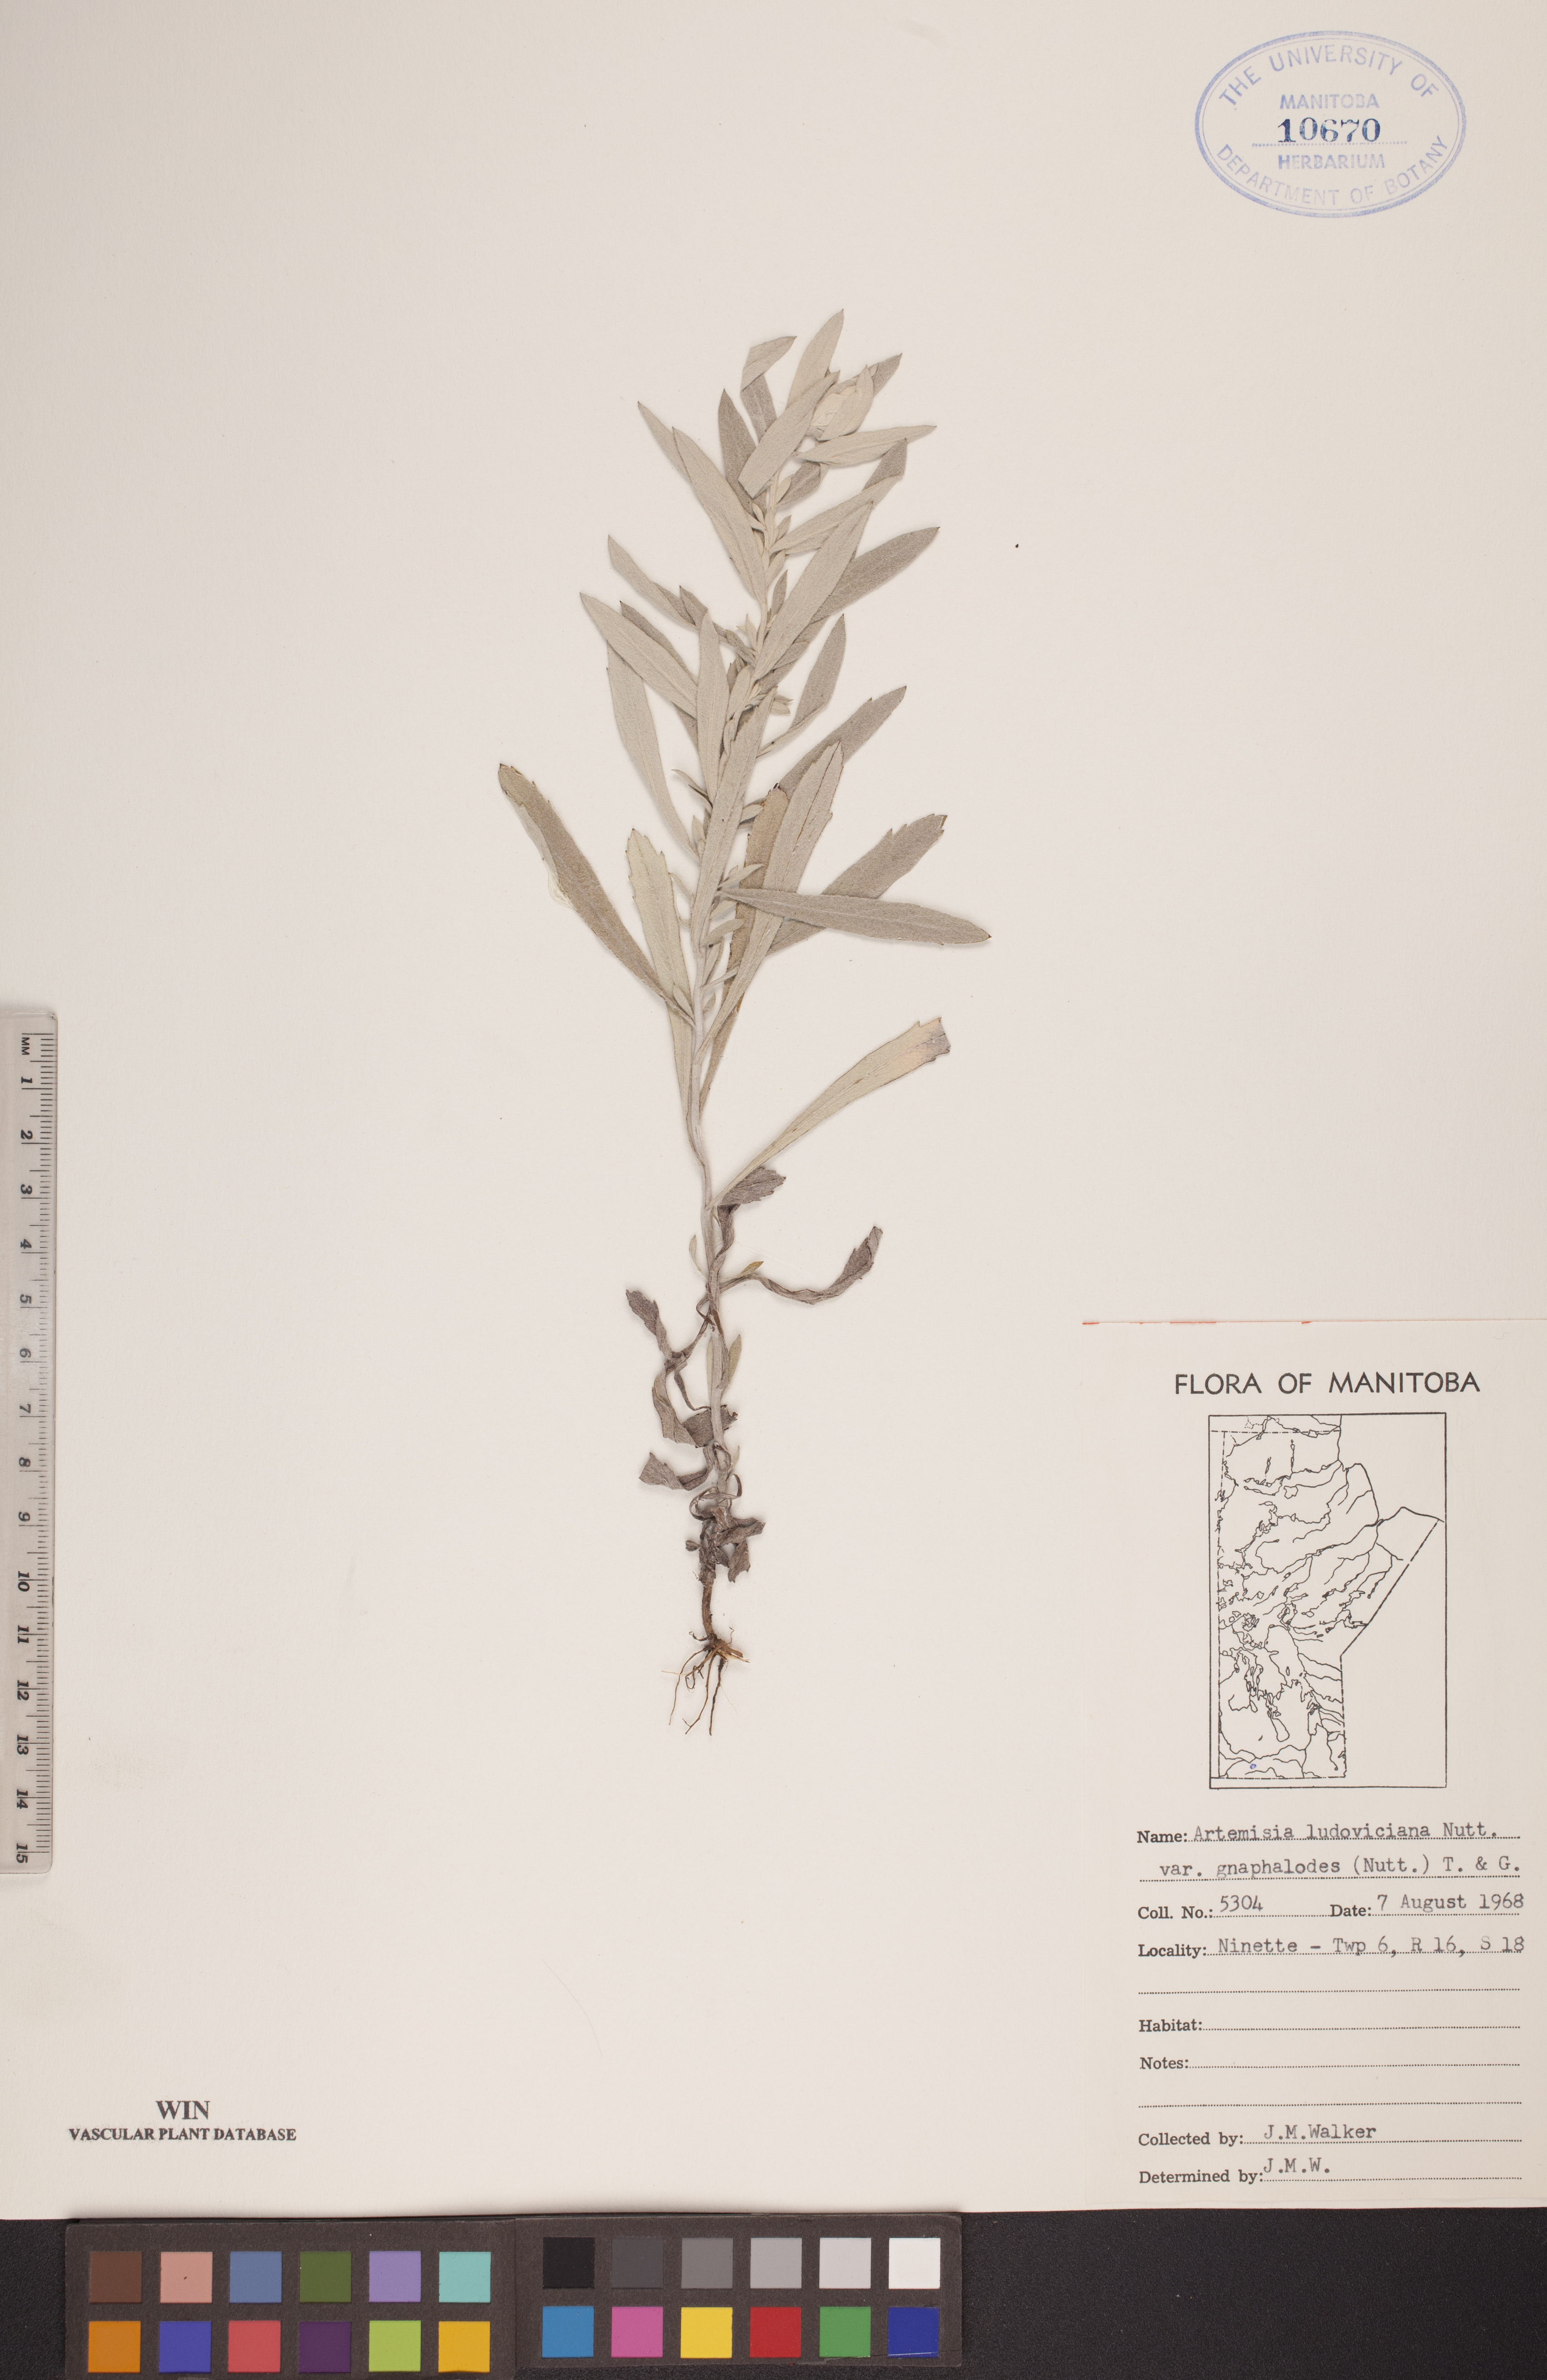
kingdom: Plantae
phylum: Tracheophyta
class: Magnoliopsida
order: Asterales
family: Asteraceae
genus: Artemisia
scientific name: Artemisia ludoviciana
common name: Western mugwort
